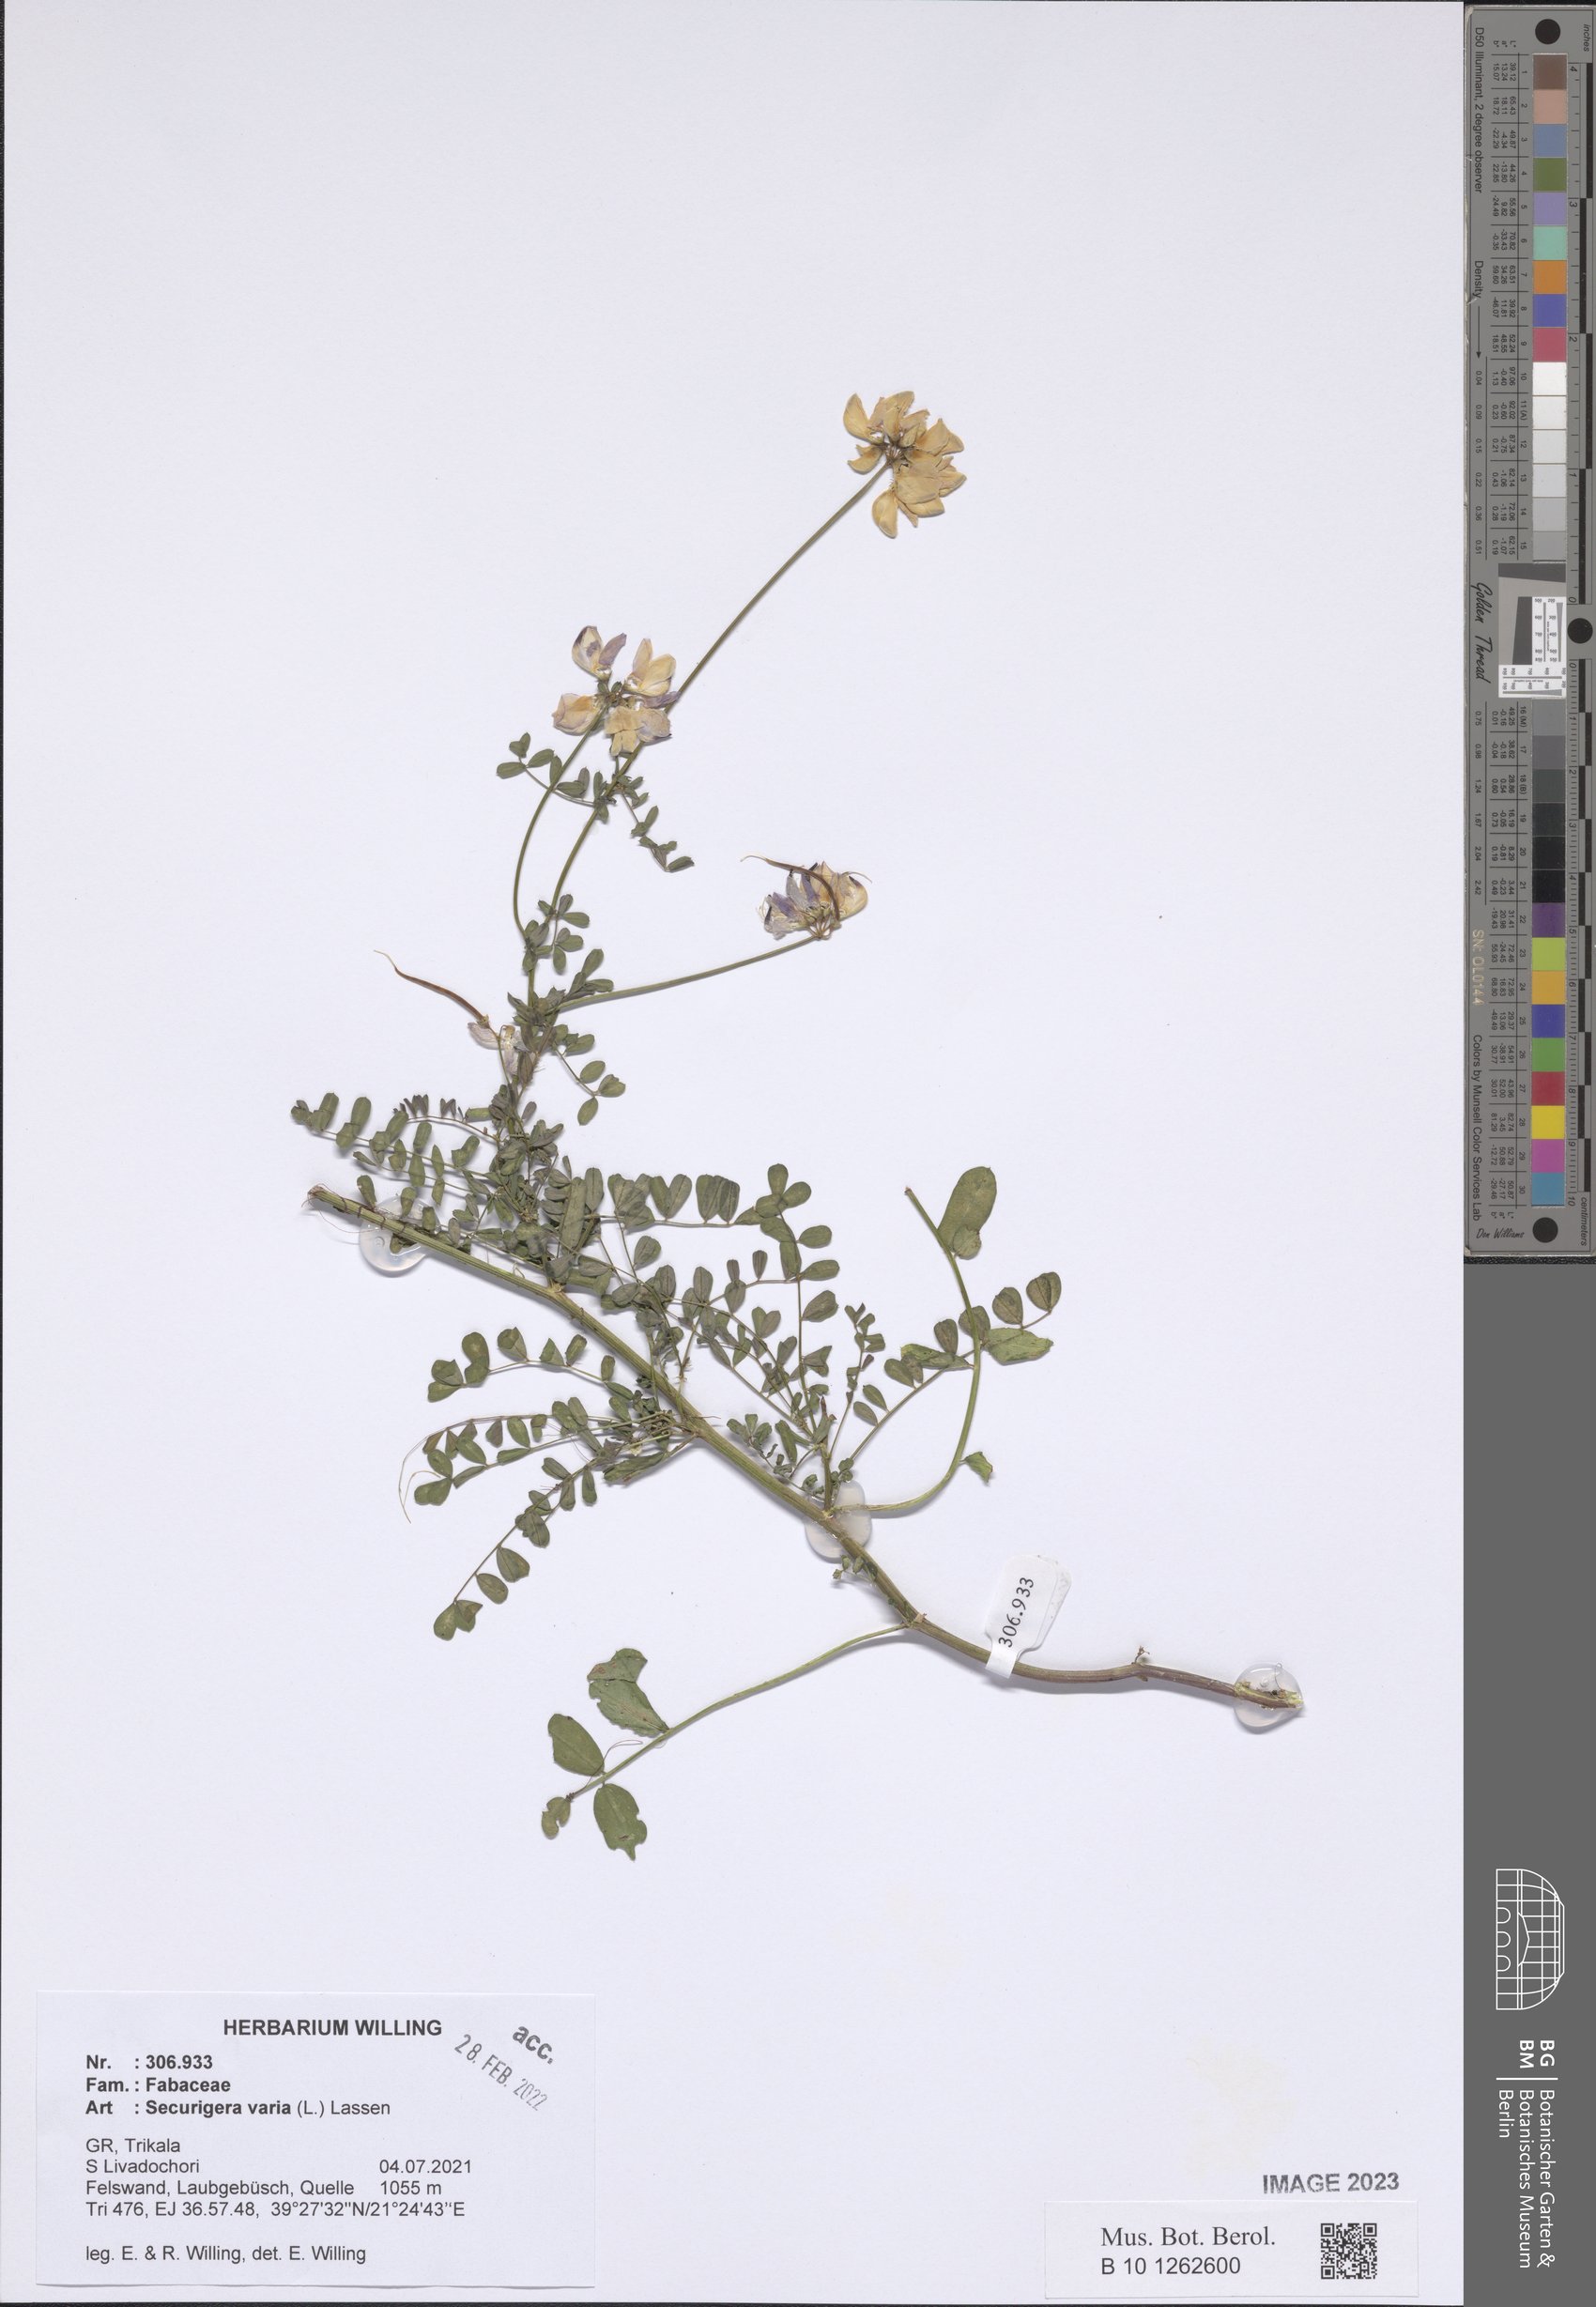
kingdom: Plantae
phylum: Tracheophyta
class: Magnoliopsida
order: Fabales
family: Fabaceae
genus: Coronilla
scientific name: Coronilla varia
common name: Crownvetch
